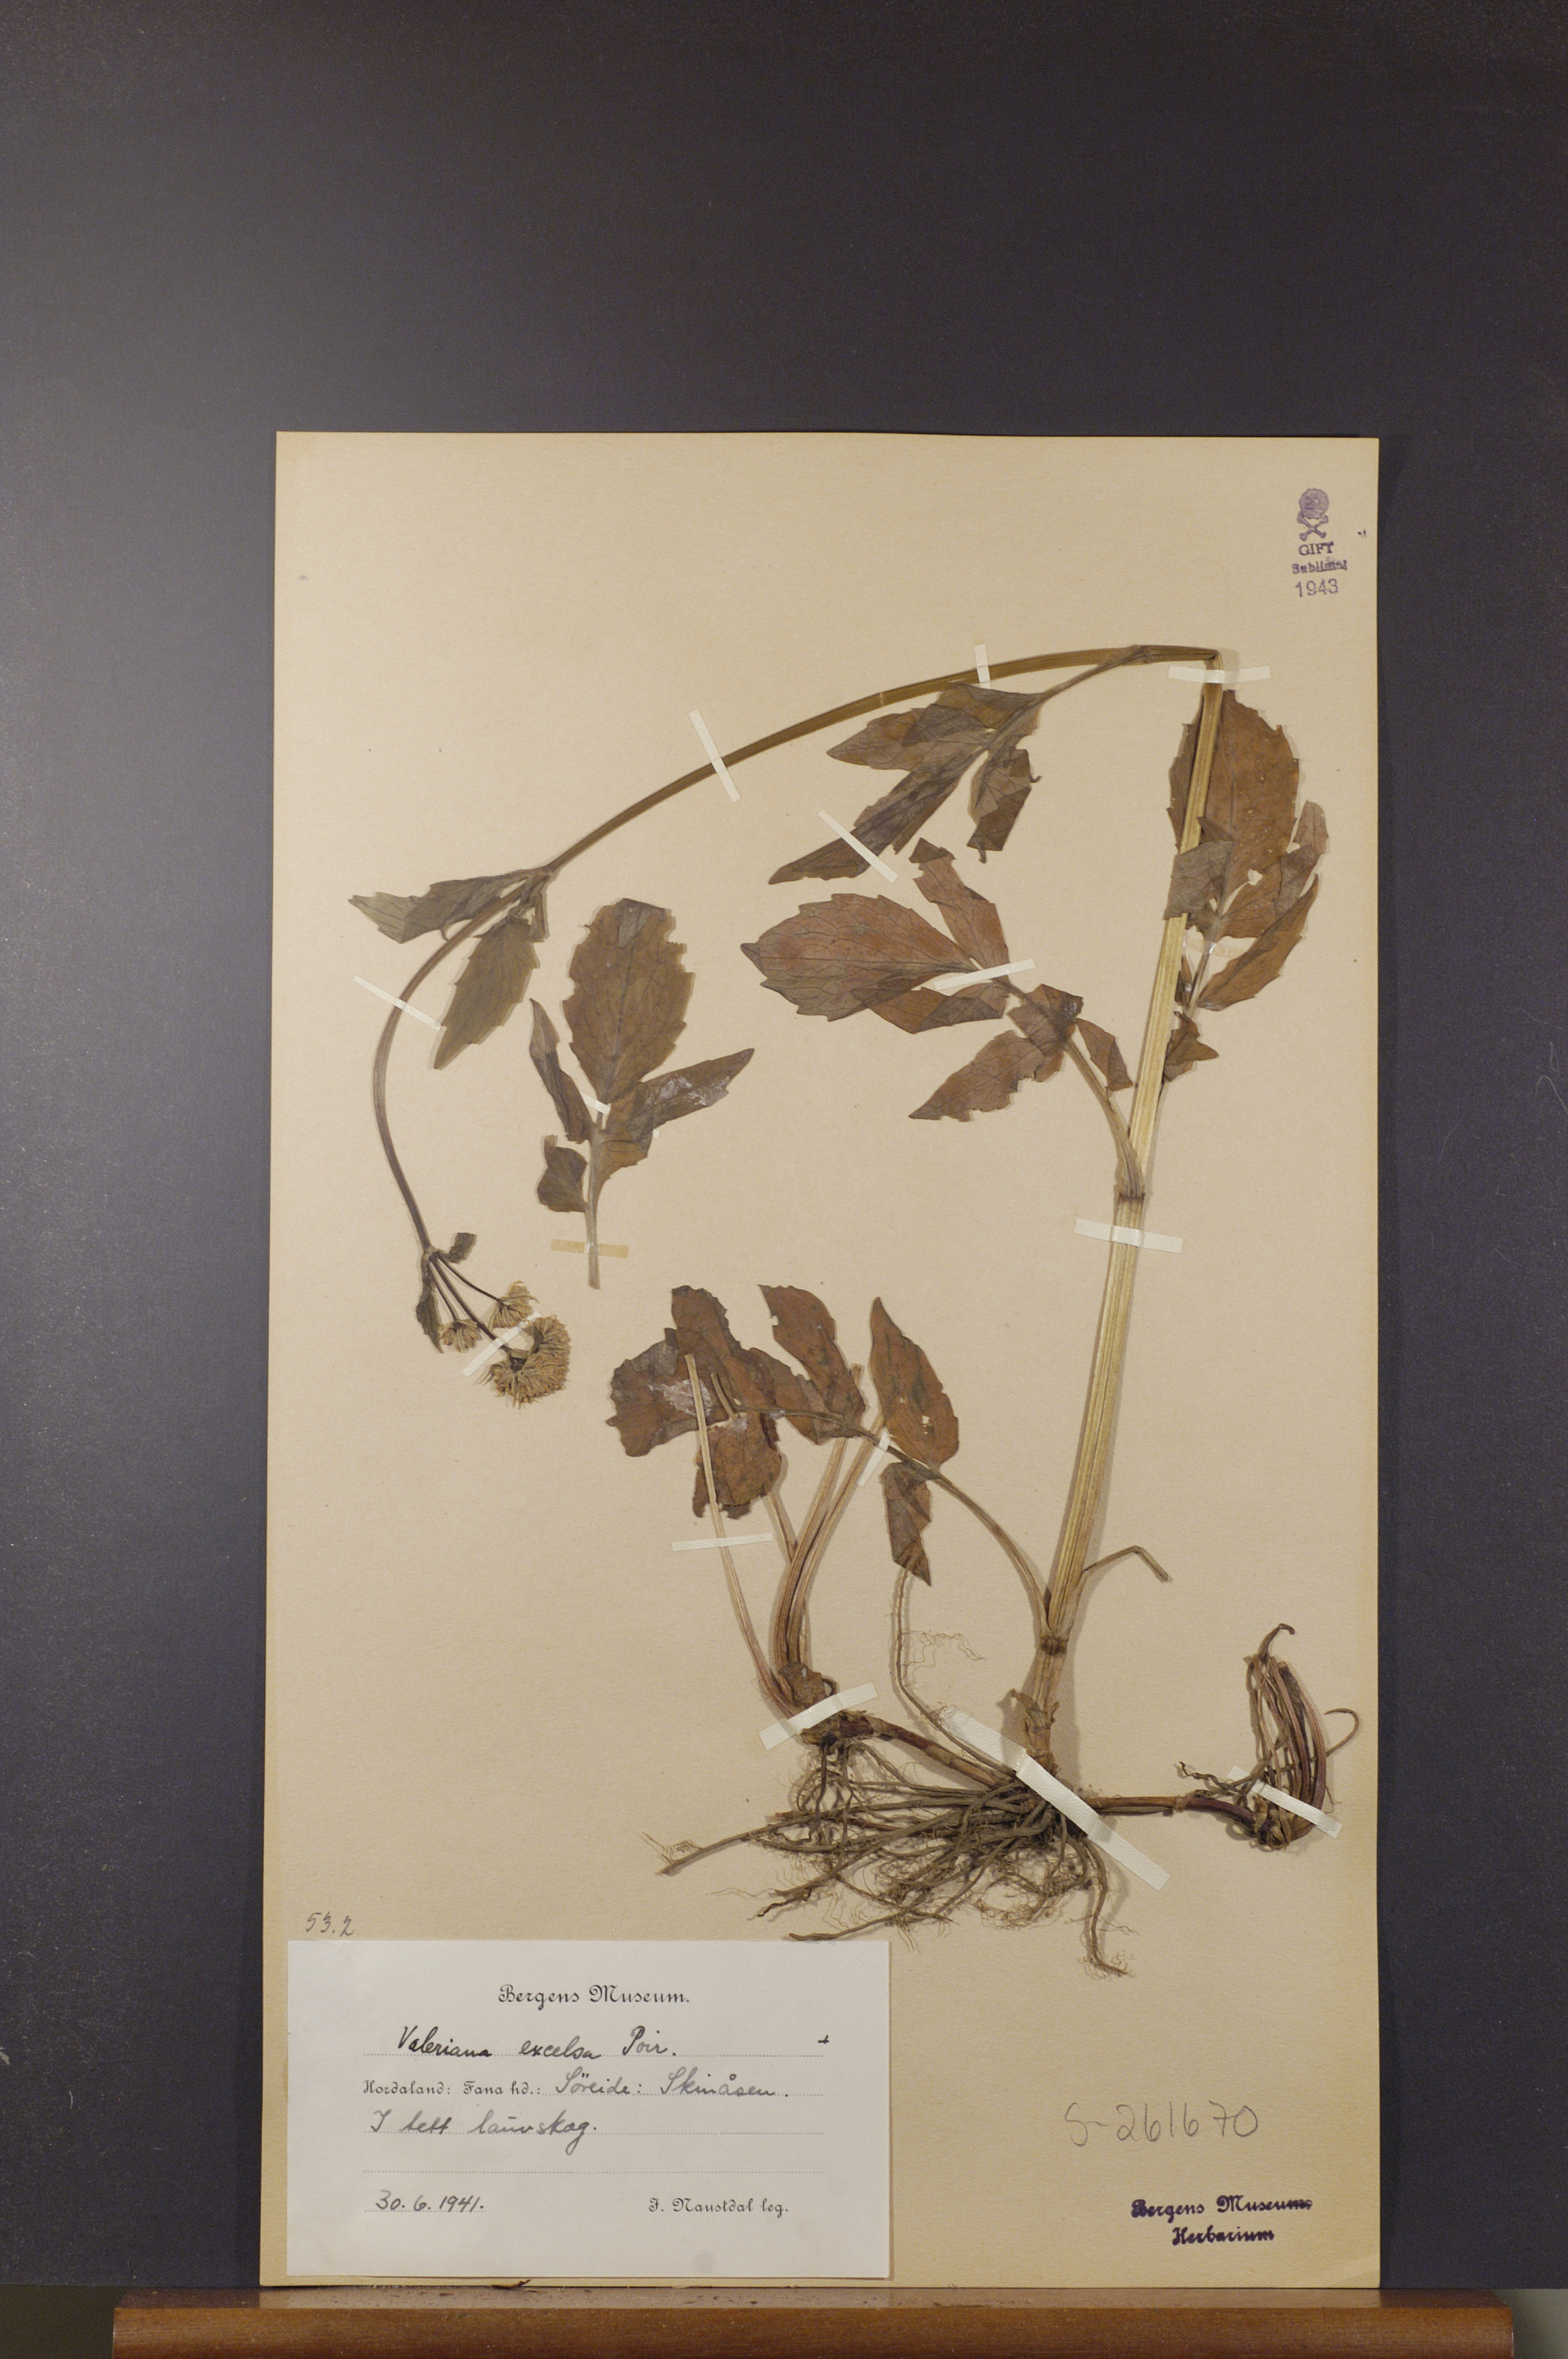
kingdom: Plantae
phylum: Tracheophyta
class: Magnoliopsida
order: Dipsacales
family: Caprifoliaceae
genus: Valeriana
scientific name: Valeriana sambucifolia
